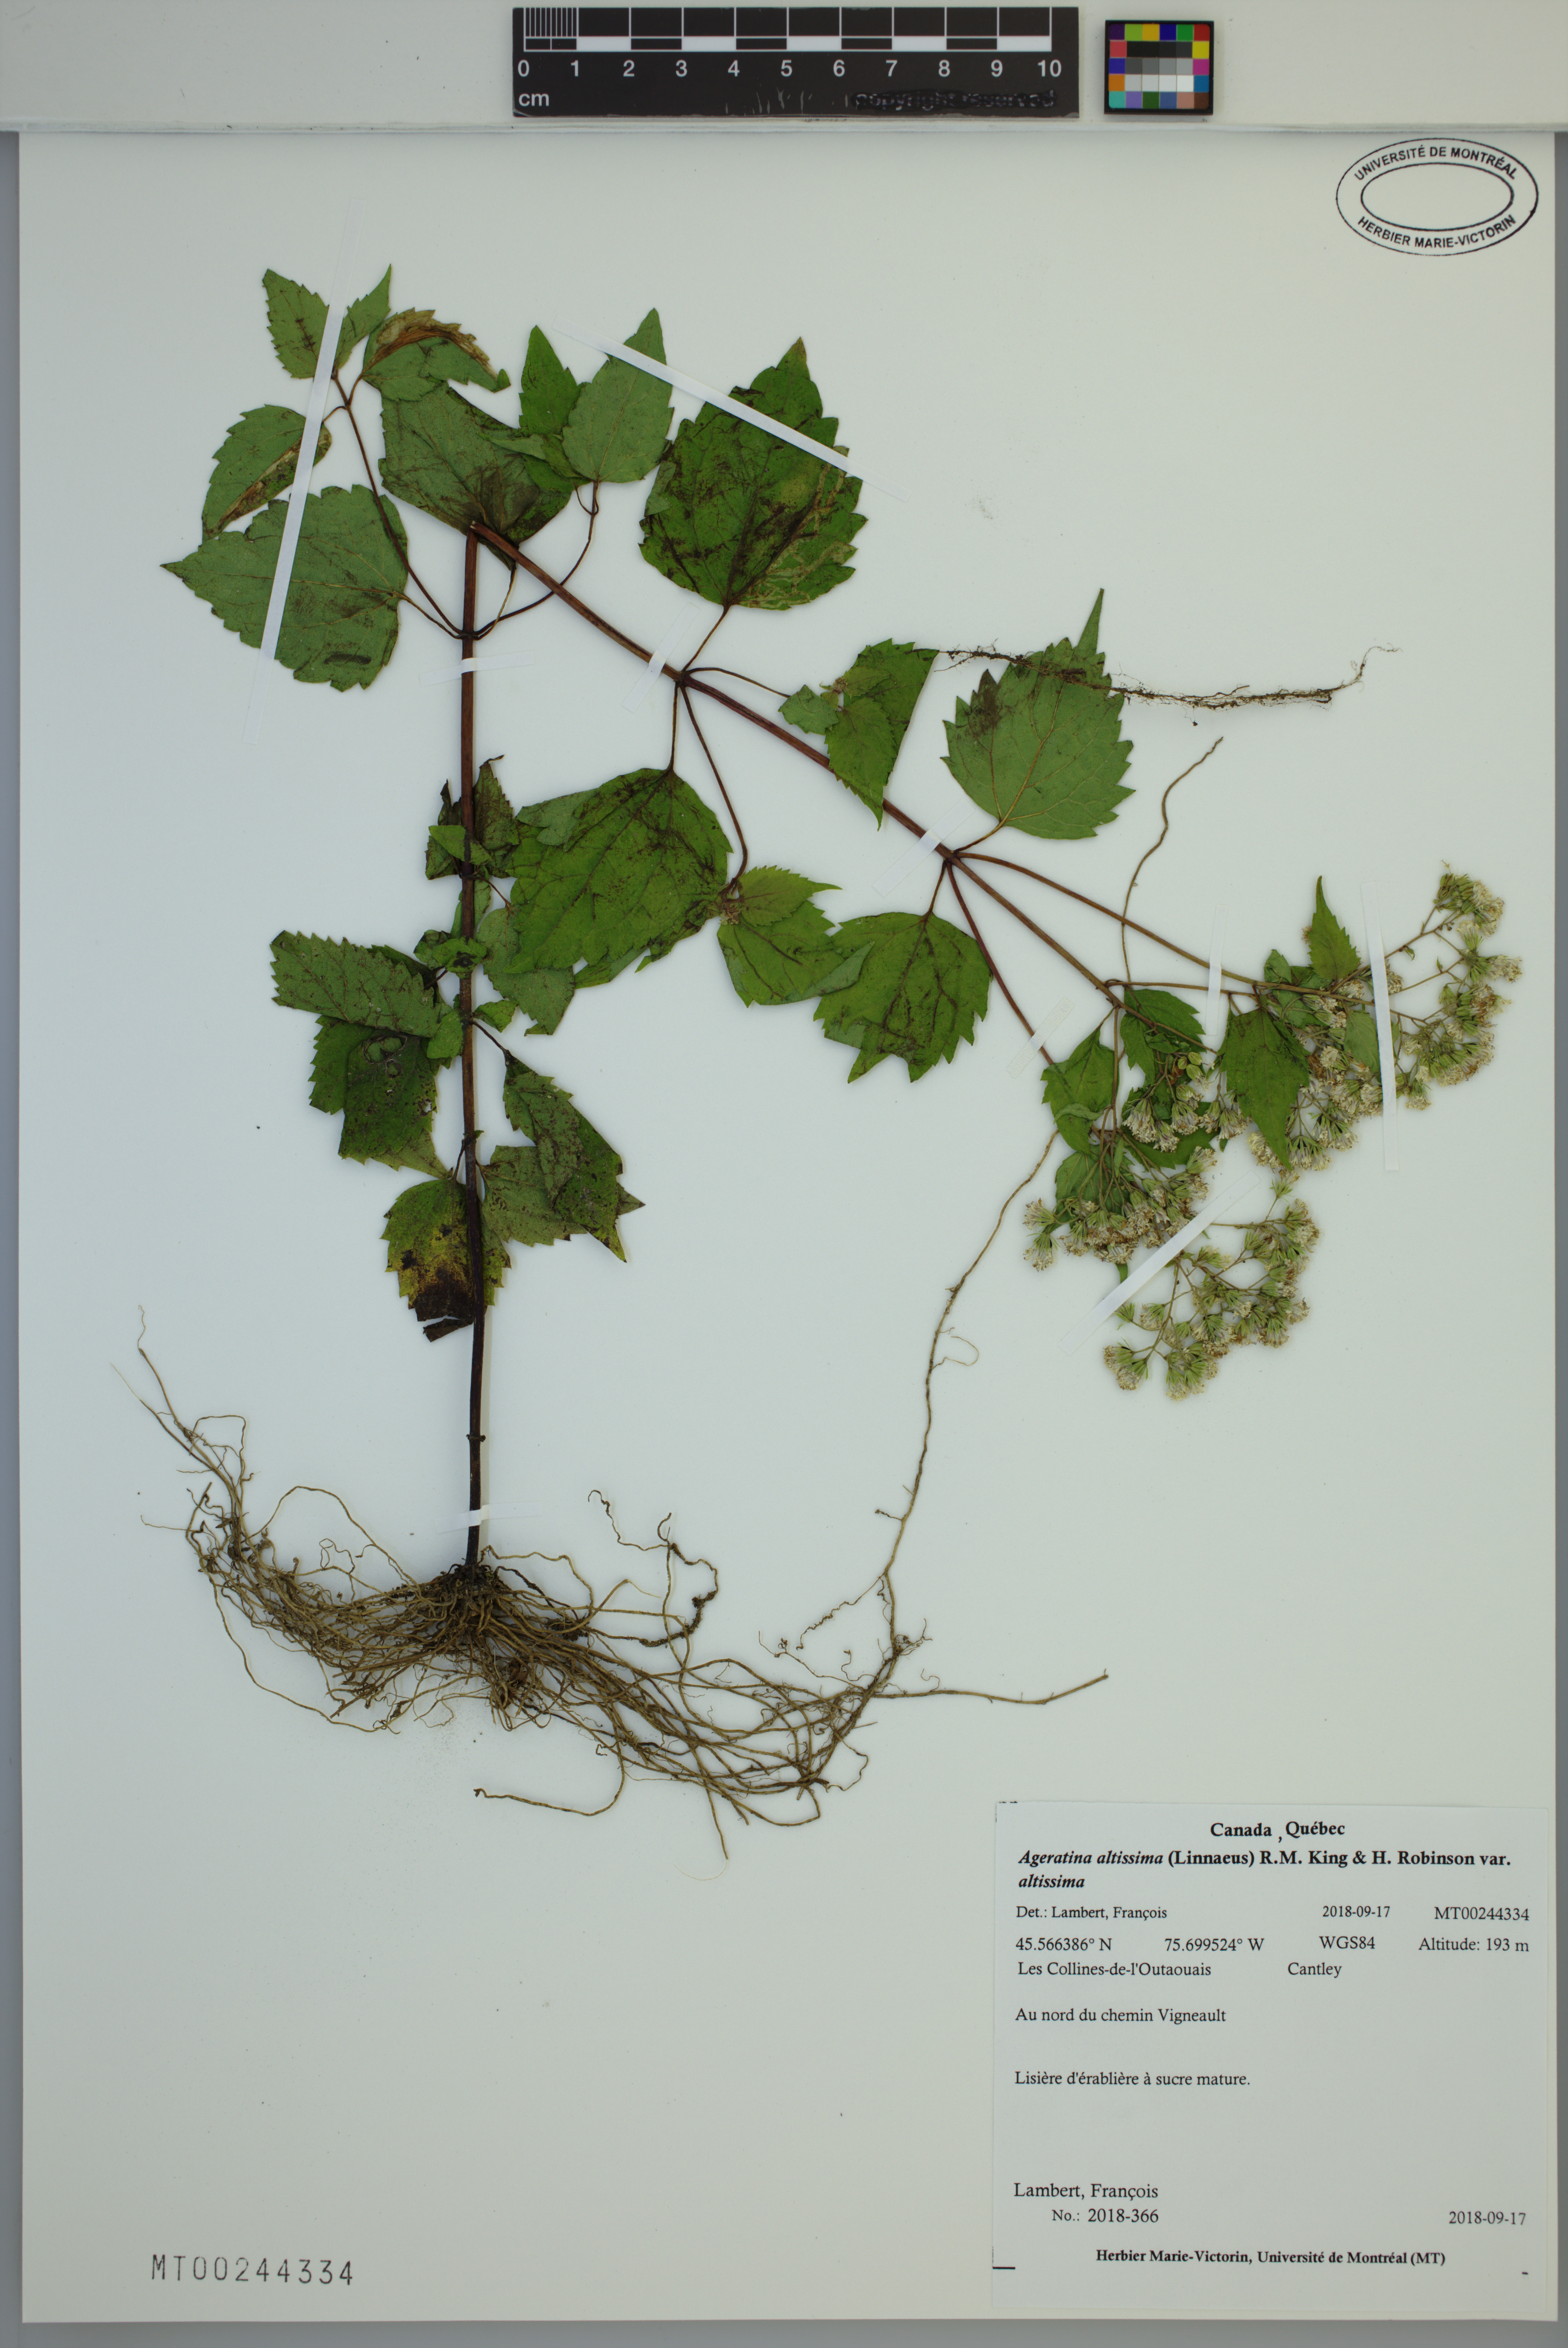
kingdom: Plantae
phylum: Tracheophyta
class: Magnoliopsida
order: Asterales
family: Asteraceae
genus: Ageratina
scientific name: Ageratina altissima
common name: White snakeroot
